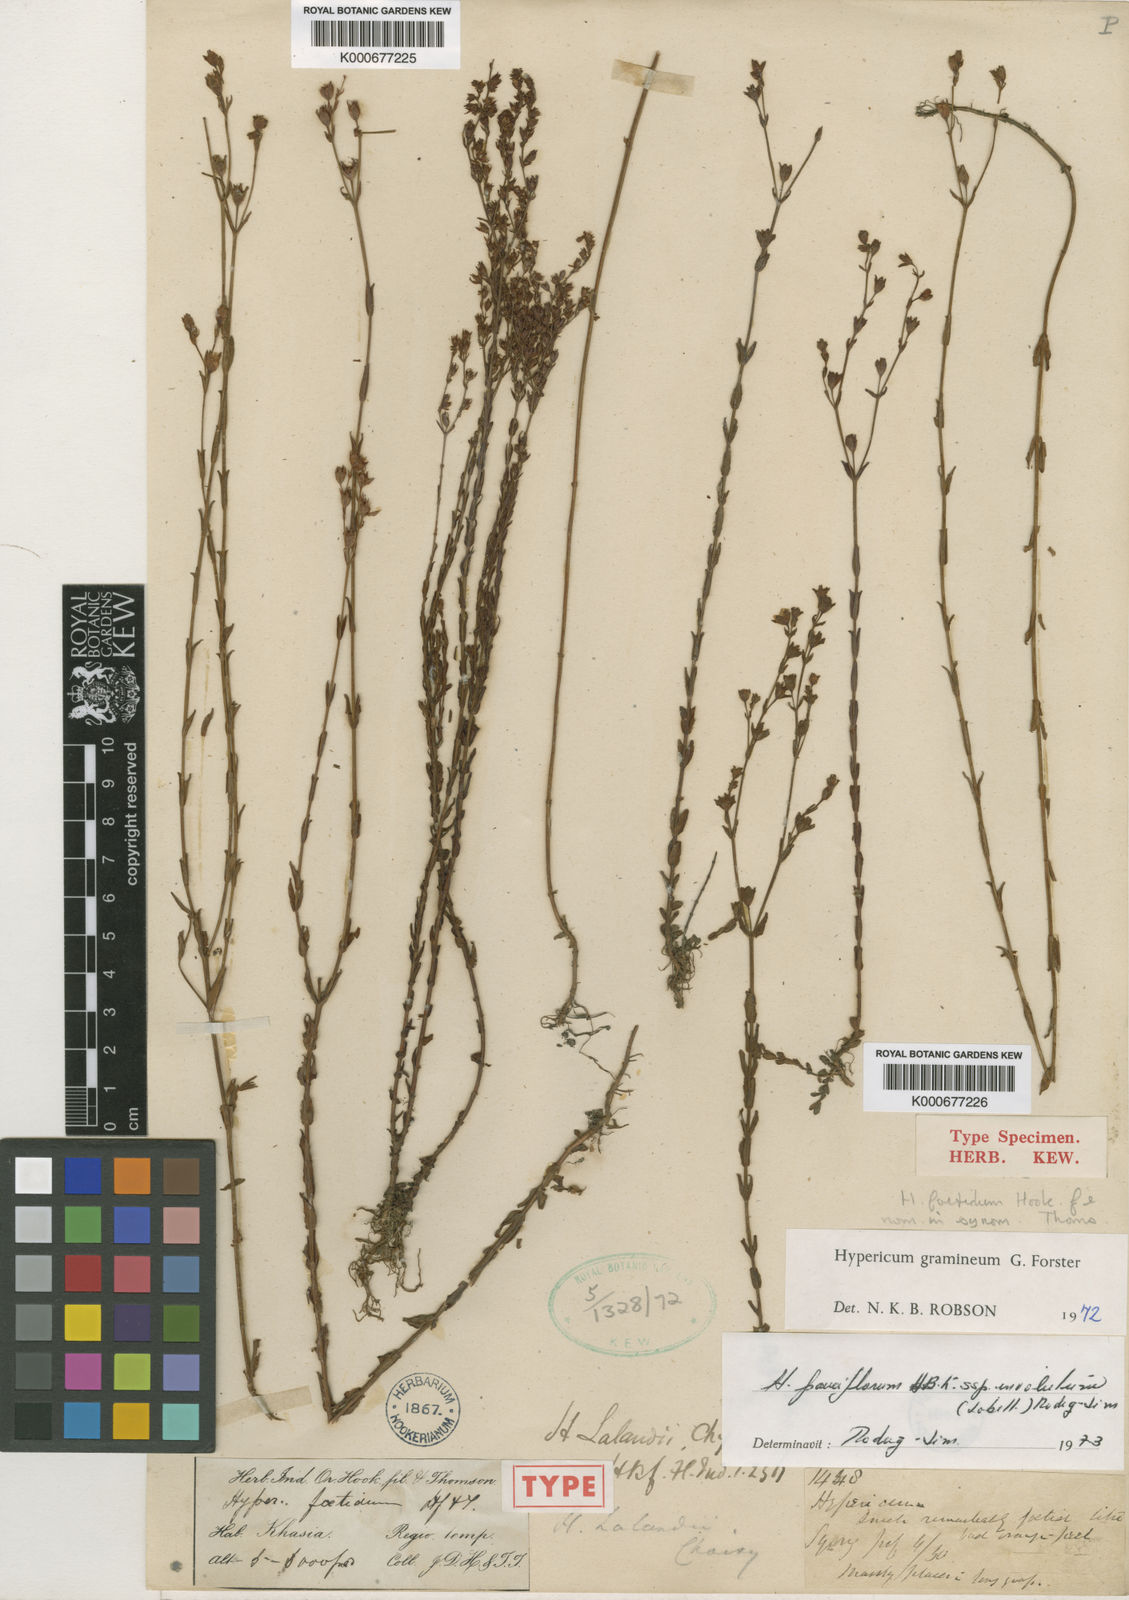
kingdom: Plantae
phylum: Tracheophyta
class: Magnoliopsida
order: Malpighiales
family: Hypericaceae
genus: Hypericum
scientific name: Hypericum gramineum
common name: Grassy st. johnswort
